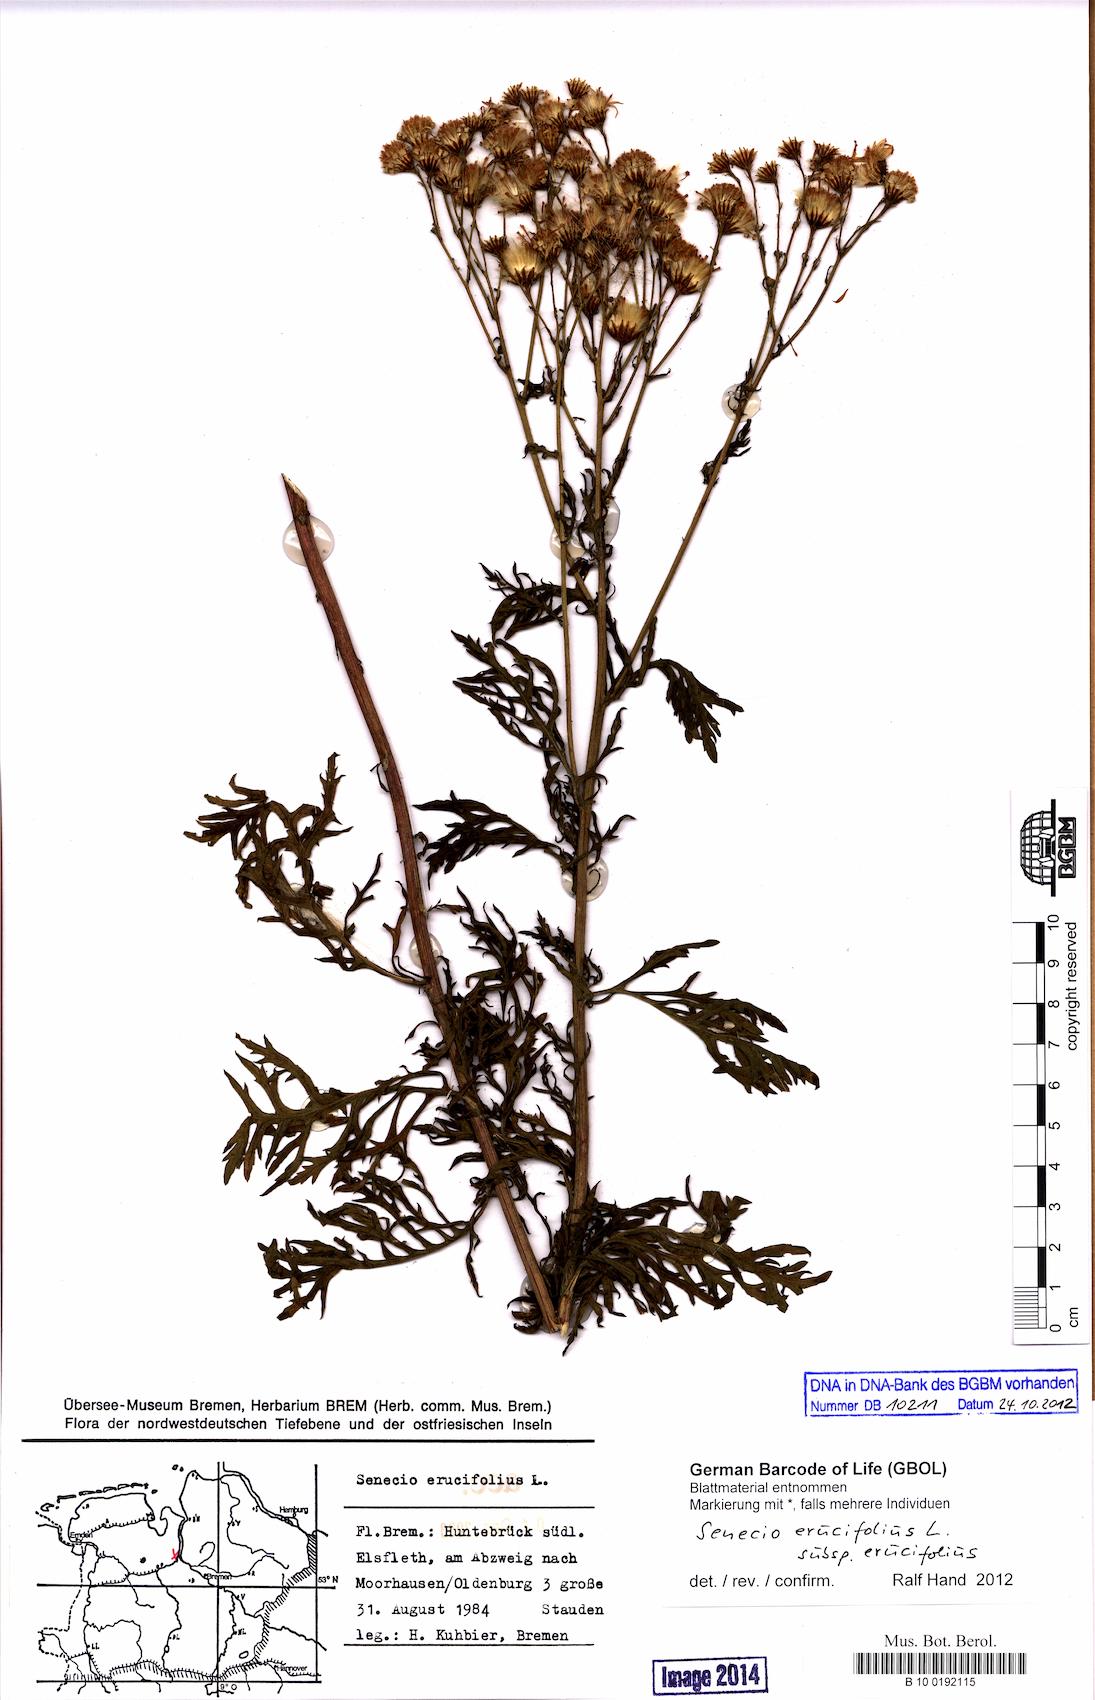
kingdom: Plantae
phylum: Tracheophyta
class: Magnoliopsida
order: Asterales
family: Asteraceae
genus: Jacobaea
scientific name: Jacobaea erucifolia
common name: Hoary ragwort
